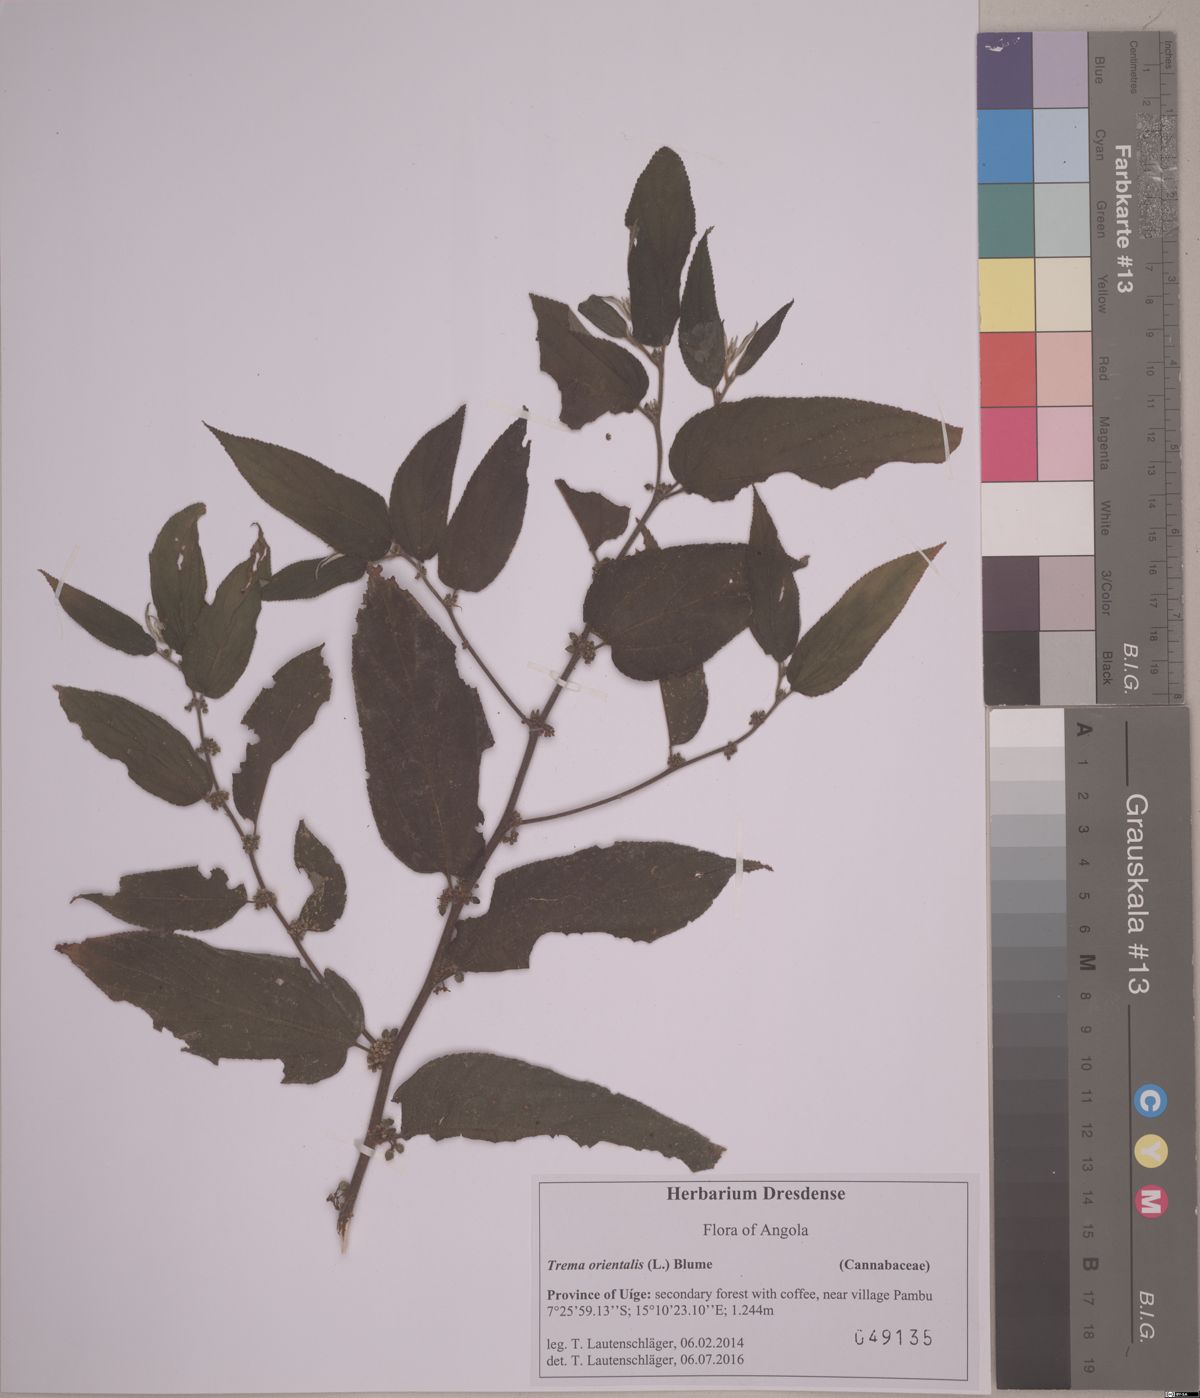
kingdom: Plantae
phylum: Tracheophyta
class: Magnoliopsida
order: Rosales
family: Cannabaceae
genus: Trema
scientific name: Trema orientale
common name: Indian charcoal tree
